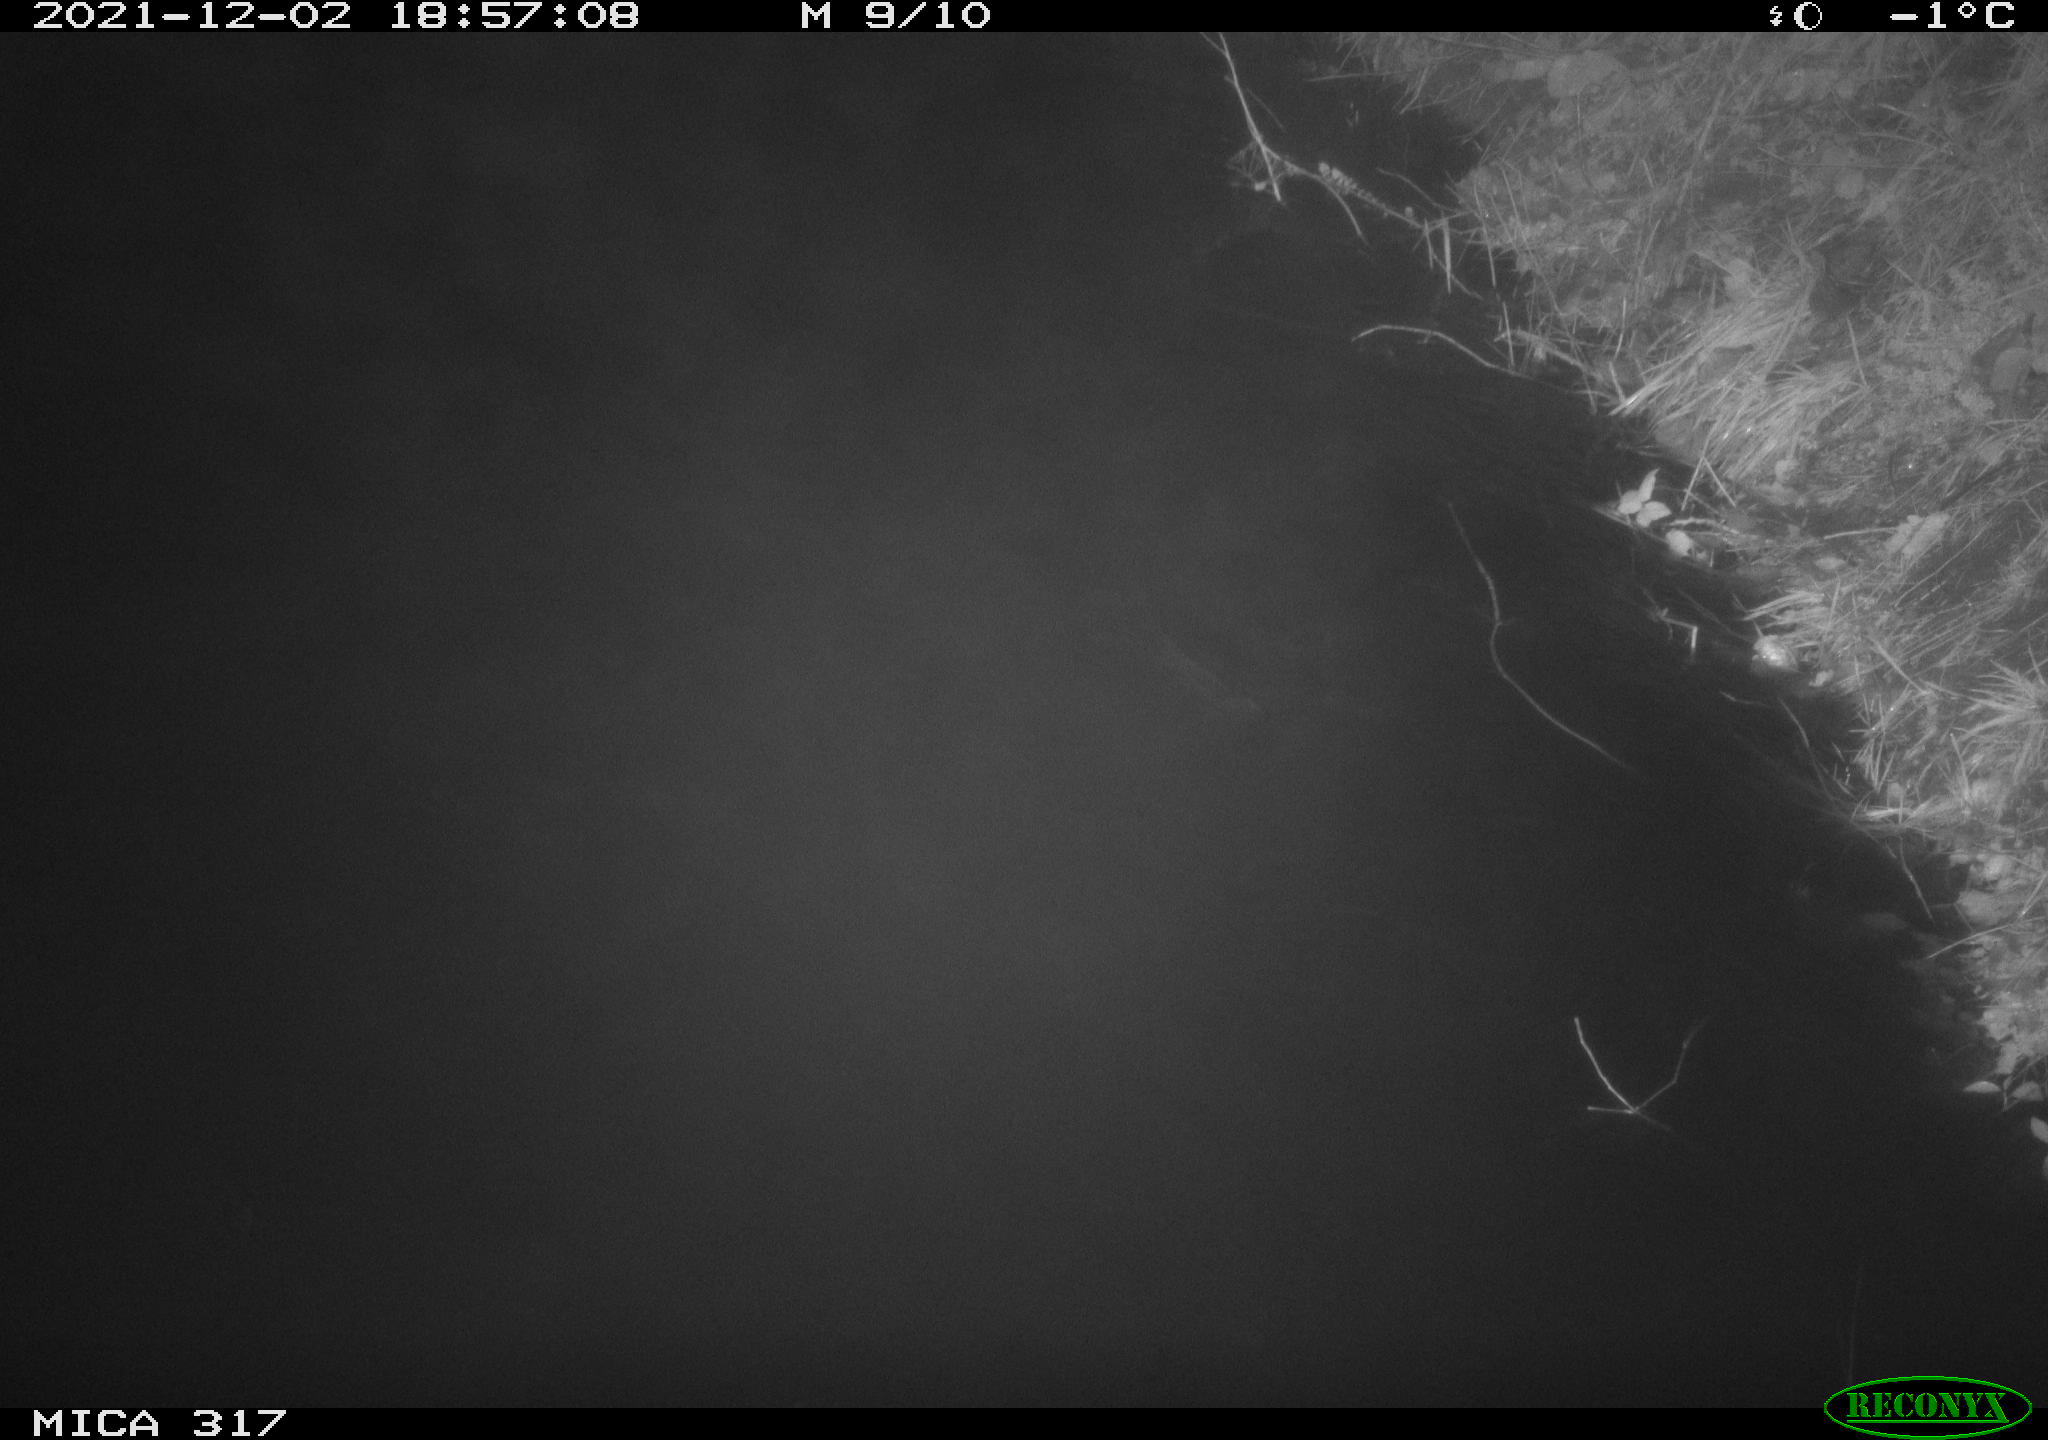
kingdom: Animalia
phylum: Chordata
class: Mammalia
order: Carnivora
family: Canidae
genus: Vulpes
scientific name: Vulpes vulpes
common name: Red fox
